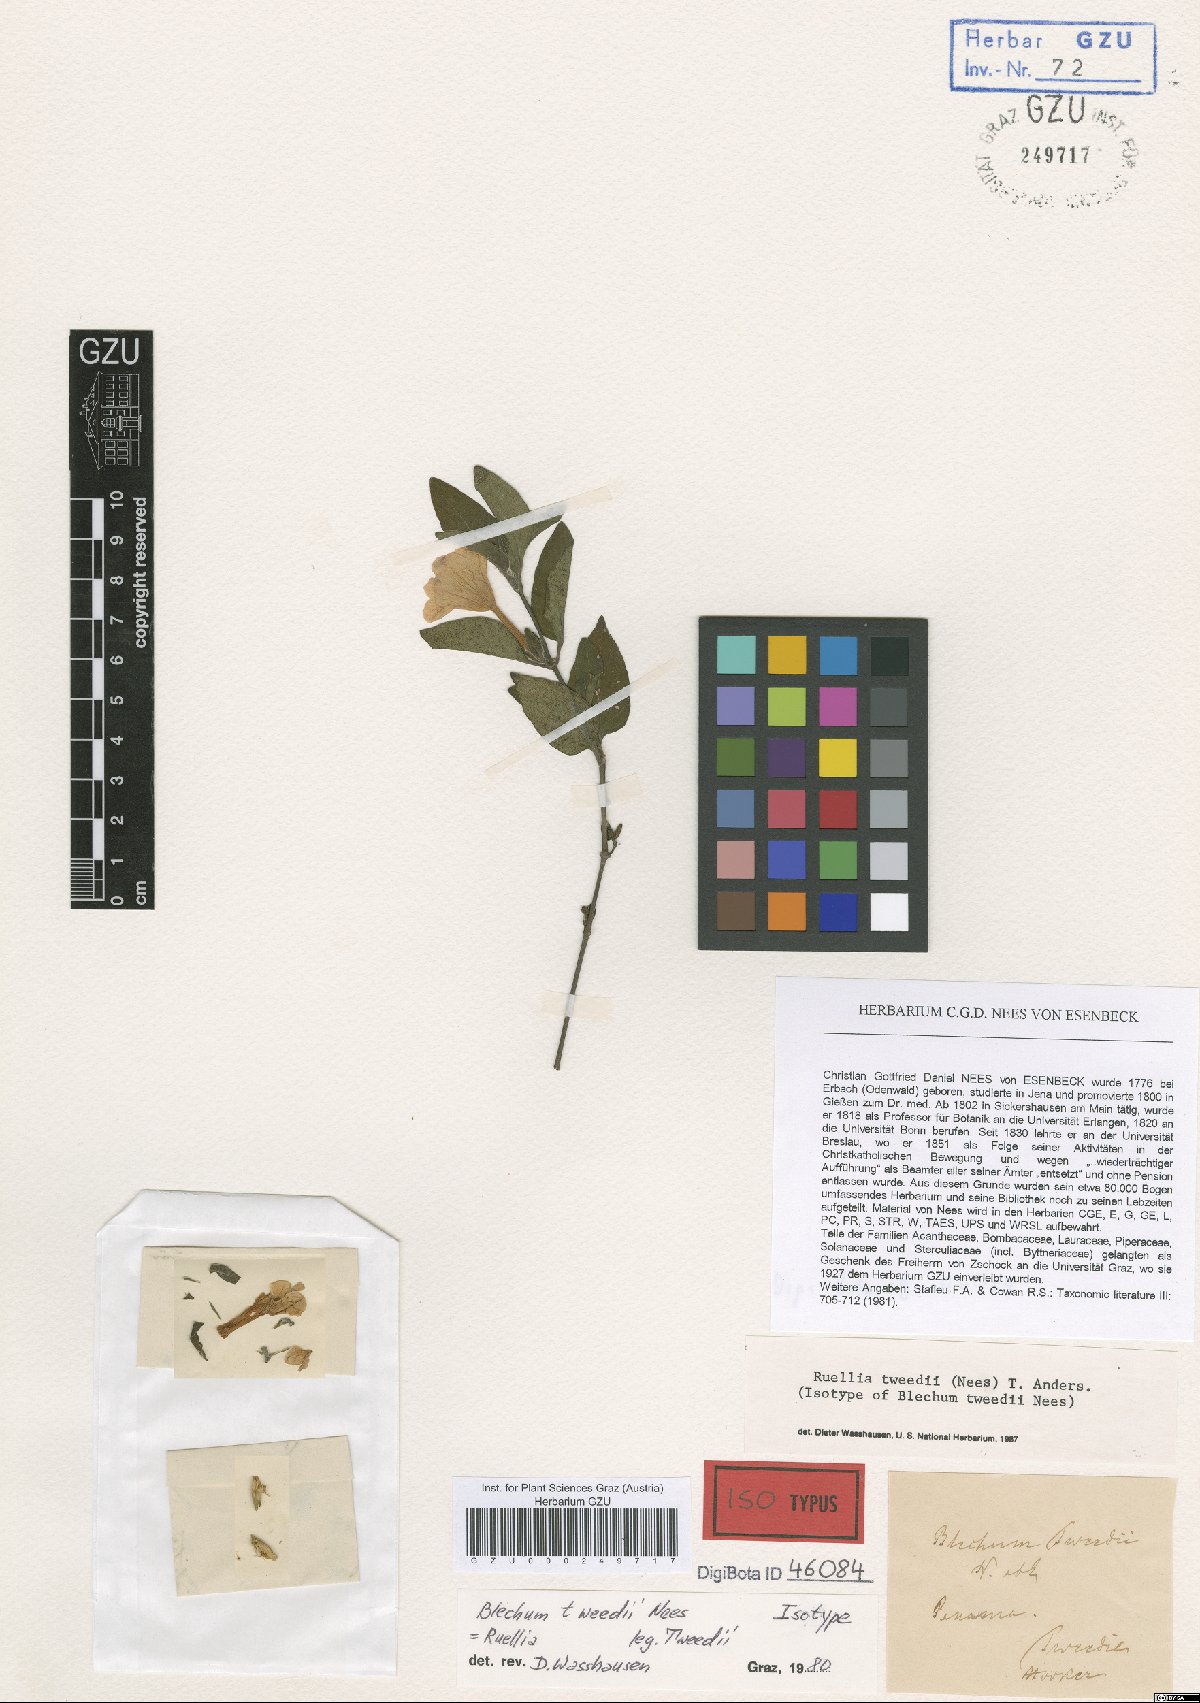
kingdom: Plantae
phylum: Tracheophyta
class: Magnoliopsida
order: Lamiales
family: Acanthaceae
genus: Ruellia
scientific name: Ruellia erythropus
